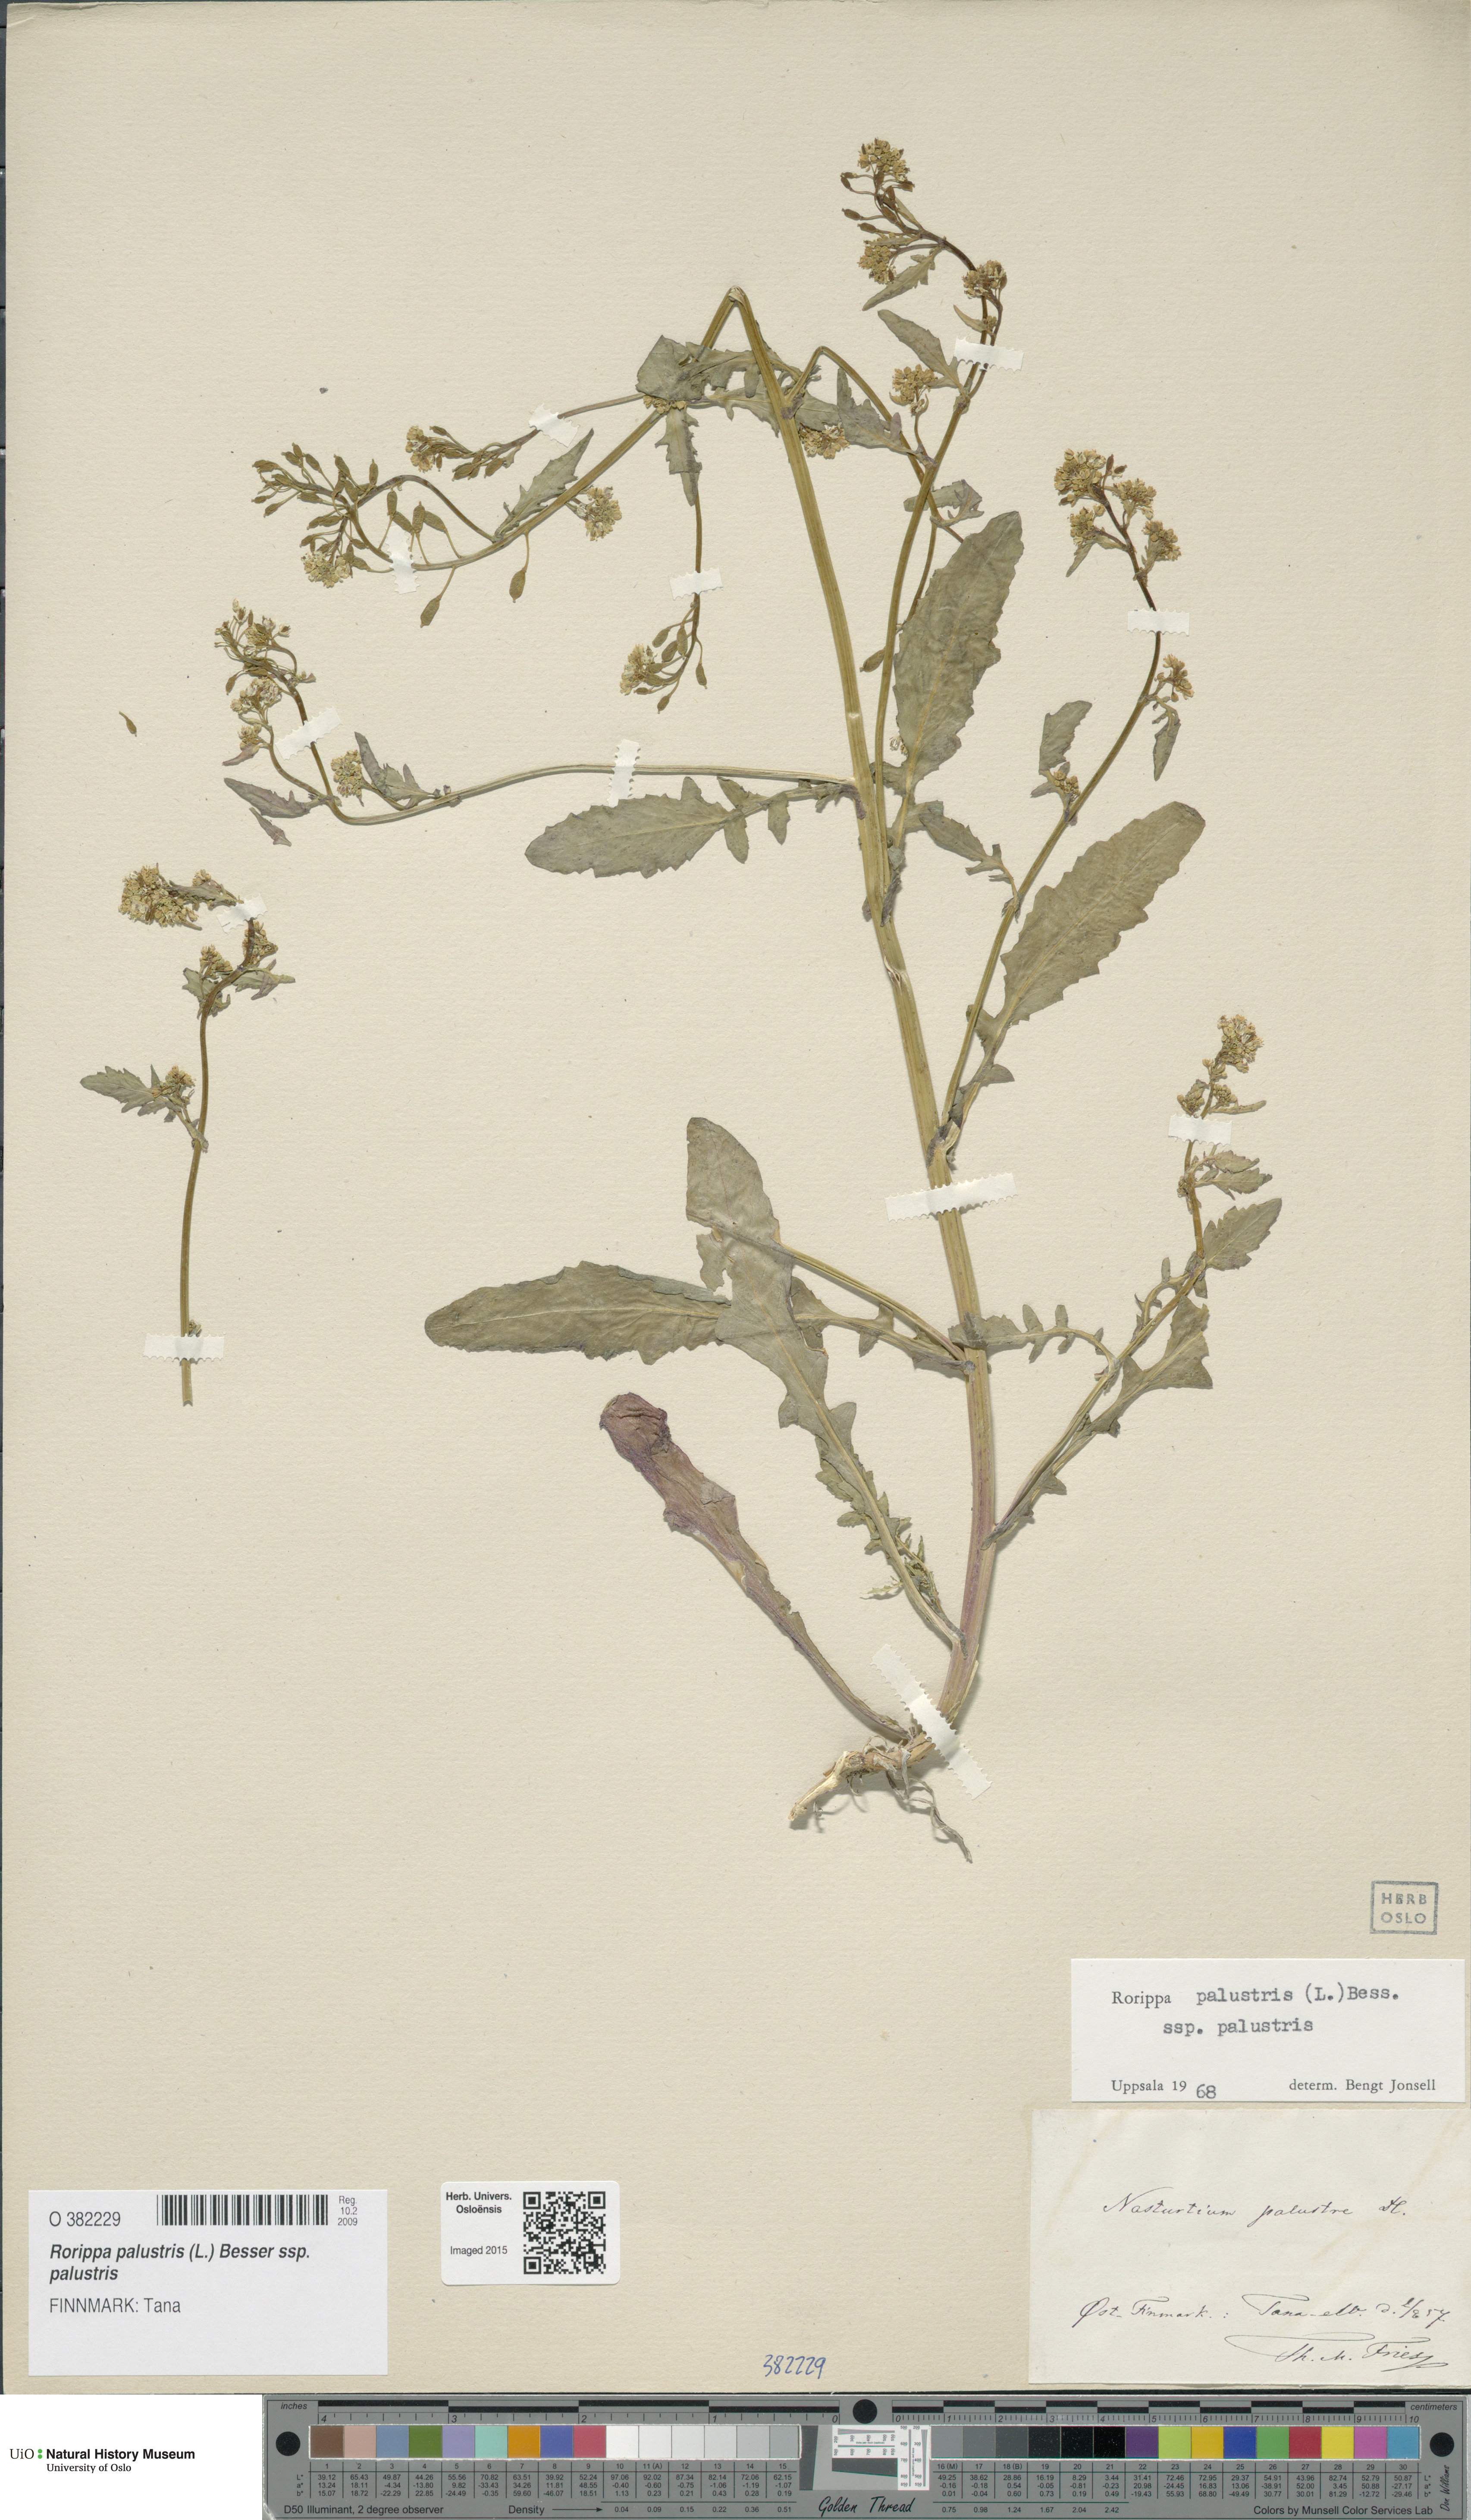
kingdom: Plantae
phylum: Tracheophyta
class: Magnoliopsida
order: Brassicales
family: Brassicaceae
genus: Rorippa
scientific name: Rorippa palustris
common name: Marsh yellow-cress
